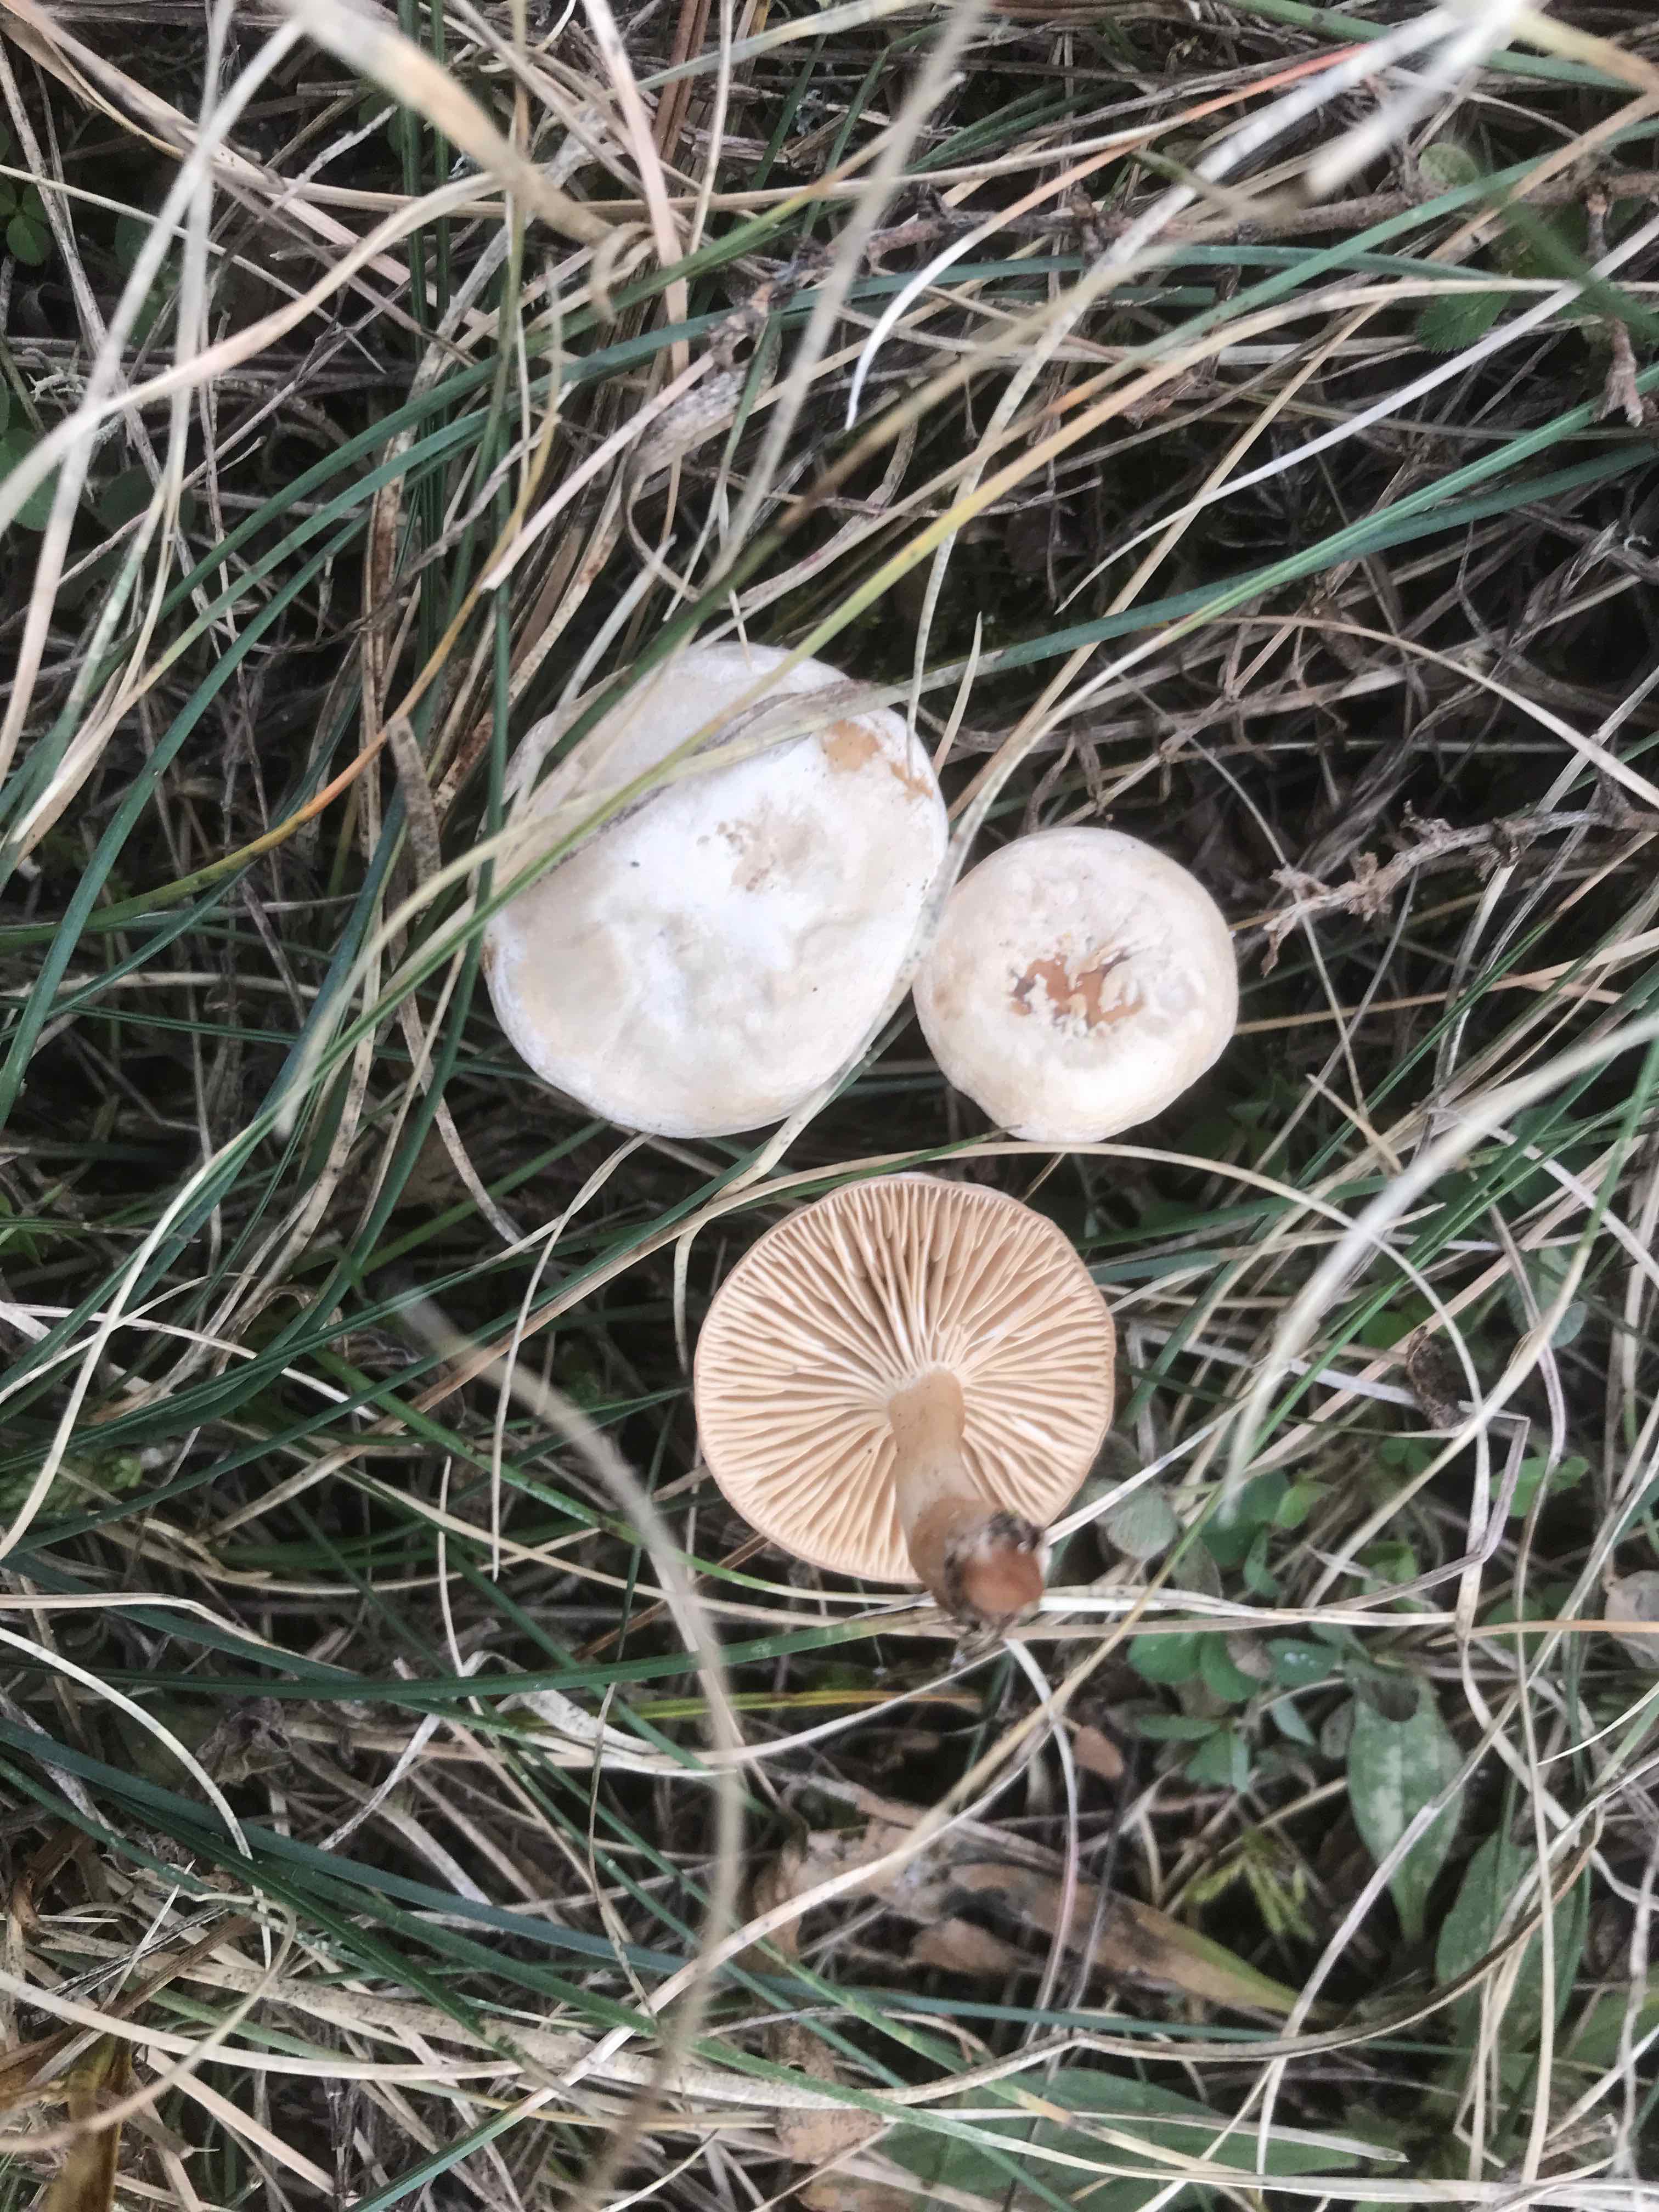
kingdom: Fungi
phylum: Basidiomycota
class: Agaricomycetes
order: Agaricales
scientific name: Agaricales
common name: champignonordenen
